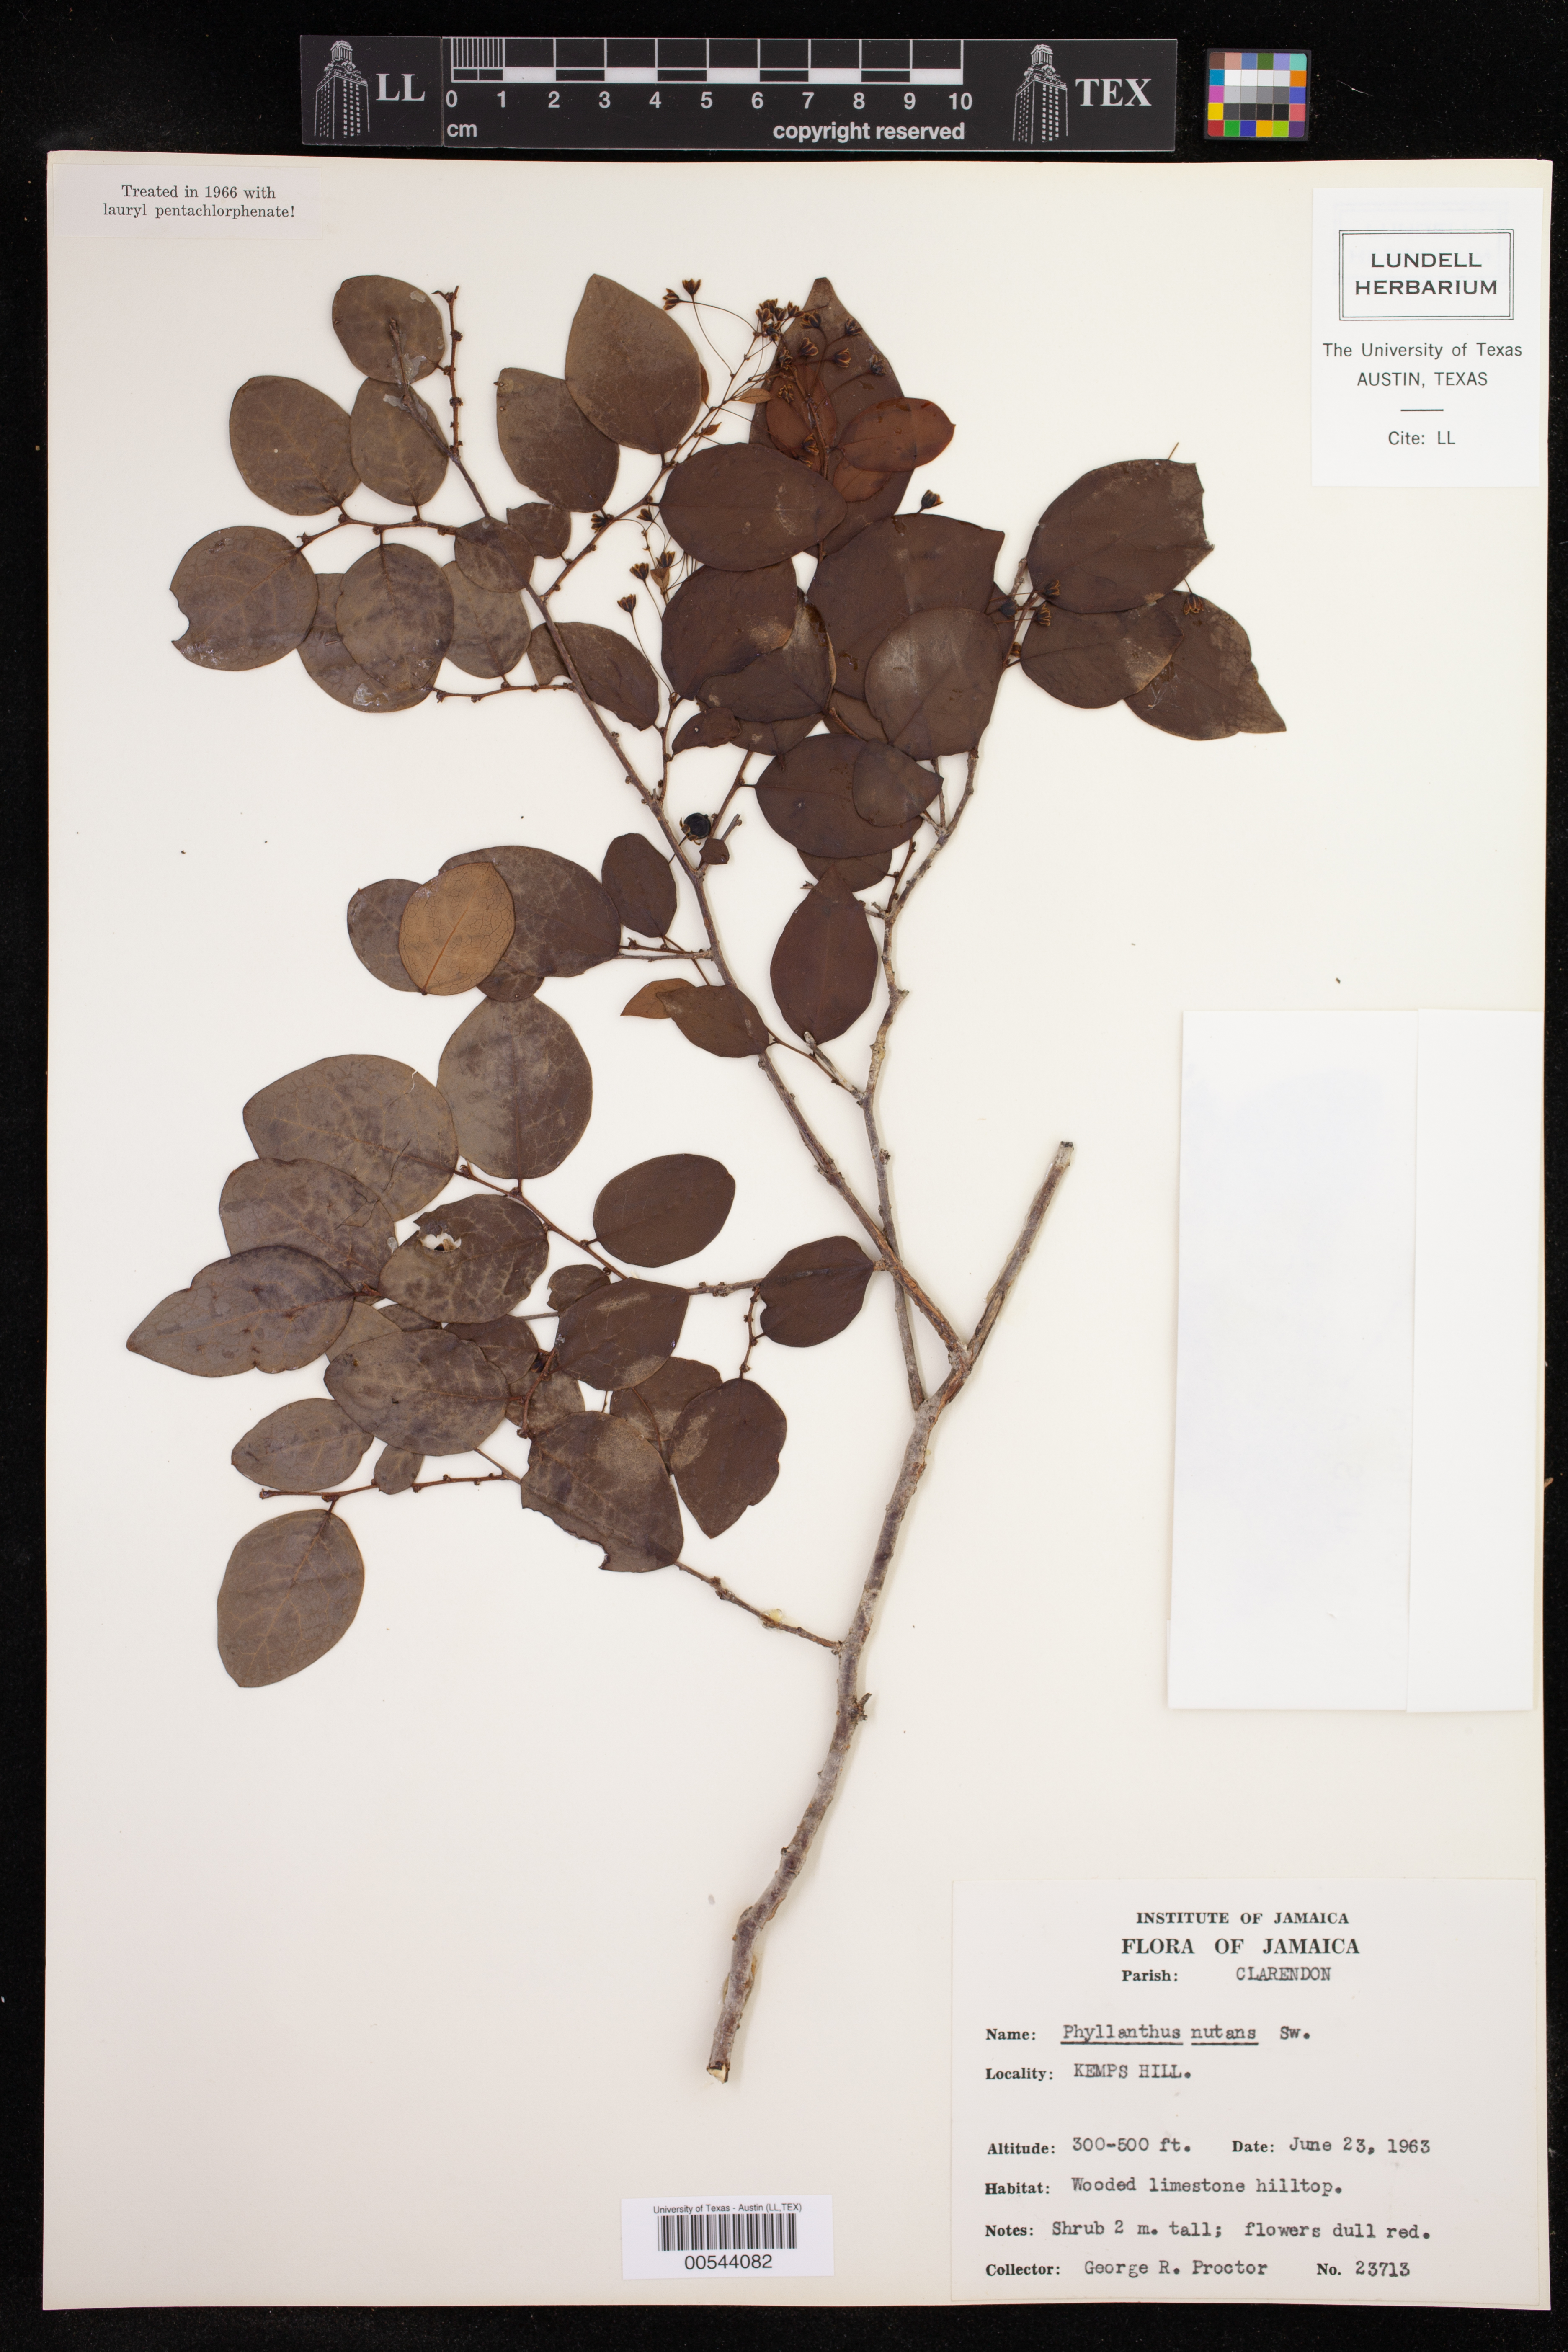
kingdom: Plantae
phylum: Tracheophyta
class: Magnoliopsida
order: Malpighiales
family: Phyllanthaceae
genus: Phyllanthus
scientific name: Phyllanthus nutans
